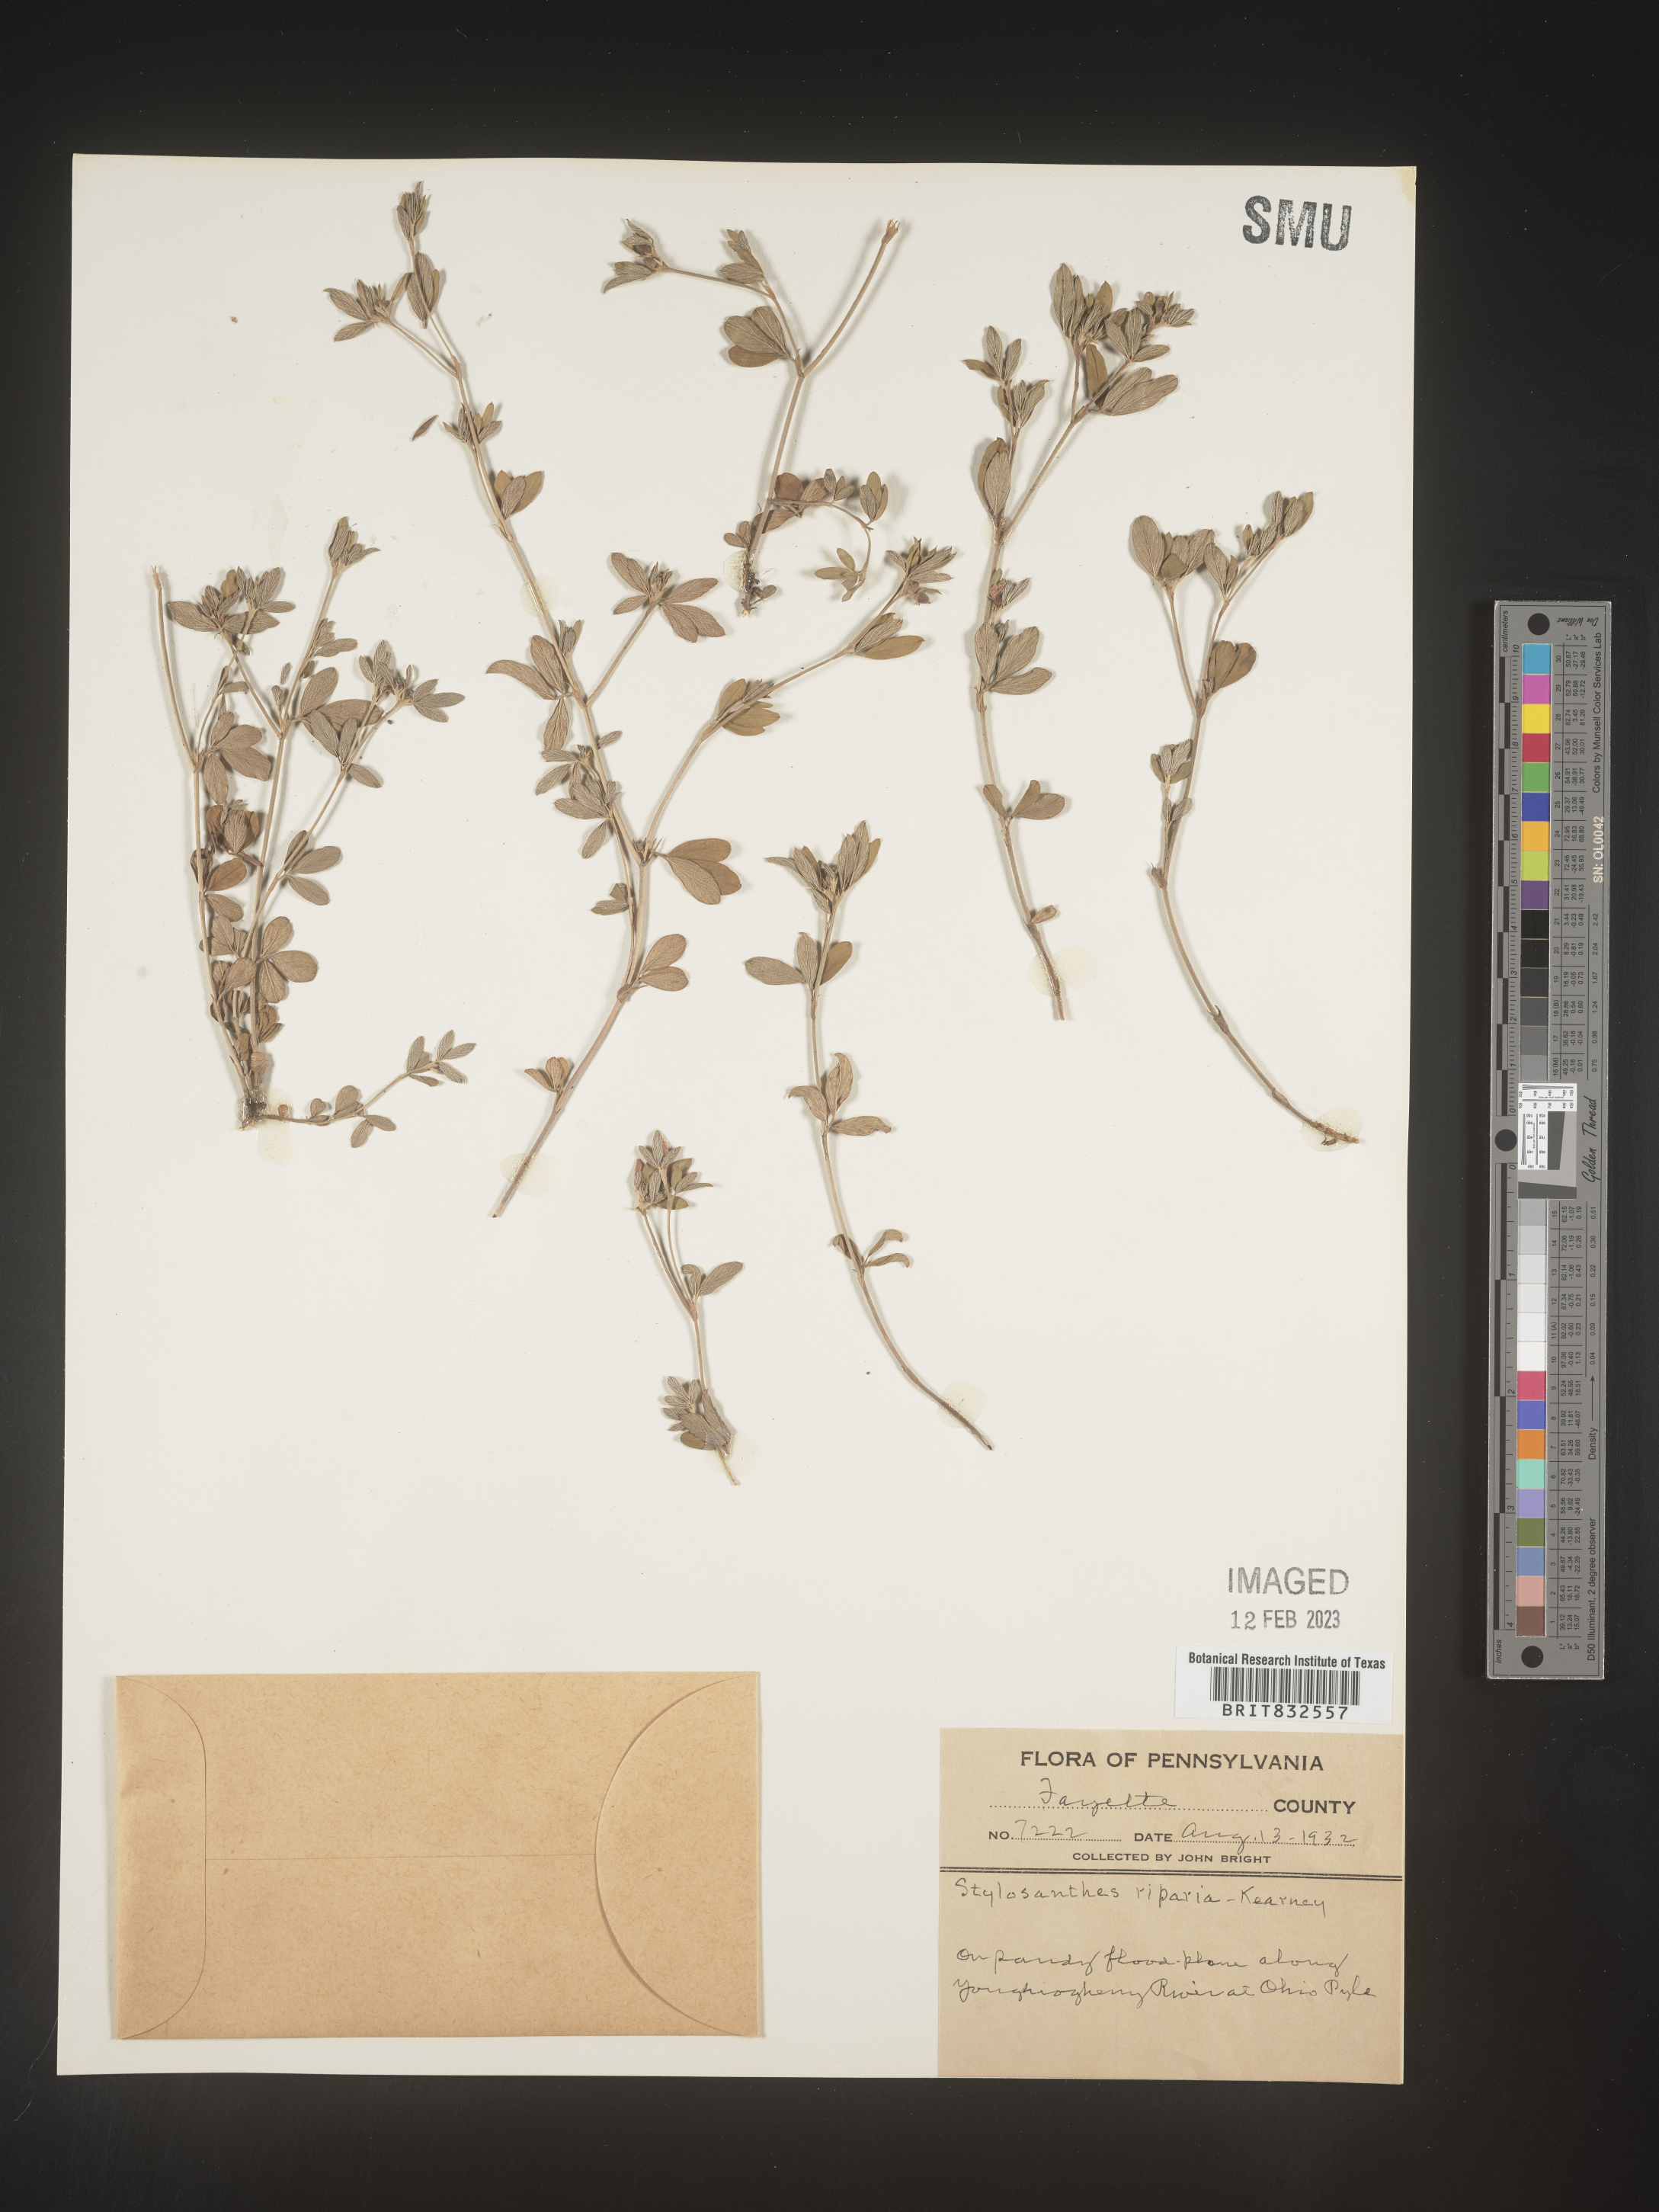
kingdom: Plantae
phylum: Tracheophyta
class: Magnoliopsida
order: Fabales
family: Fabaceae
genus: Stylosanthes
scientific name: Stylosanthes
